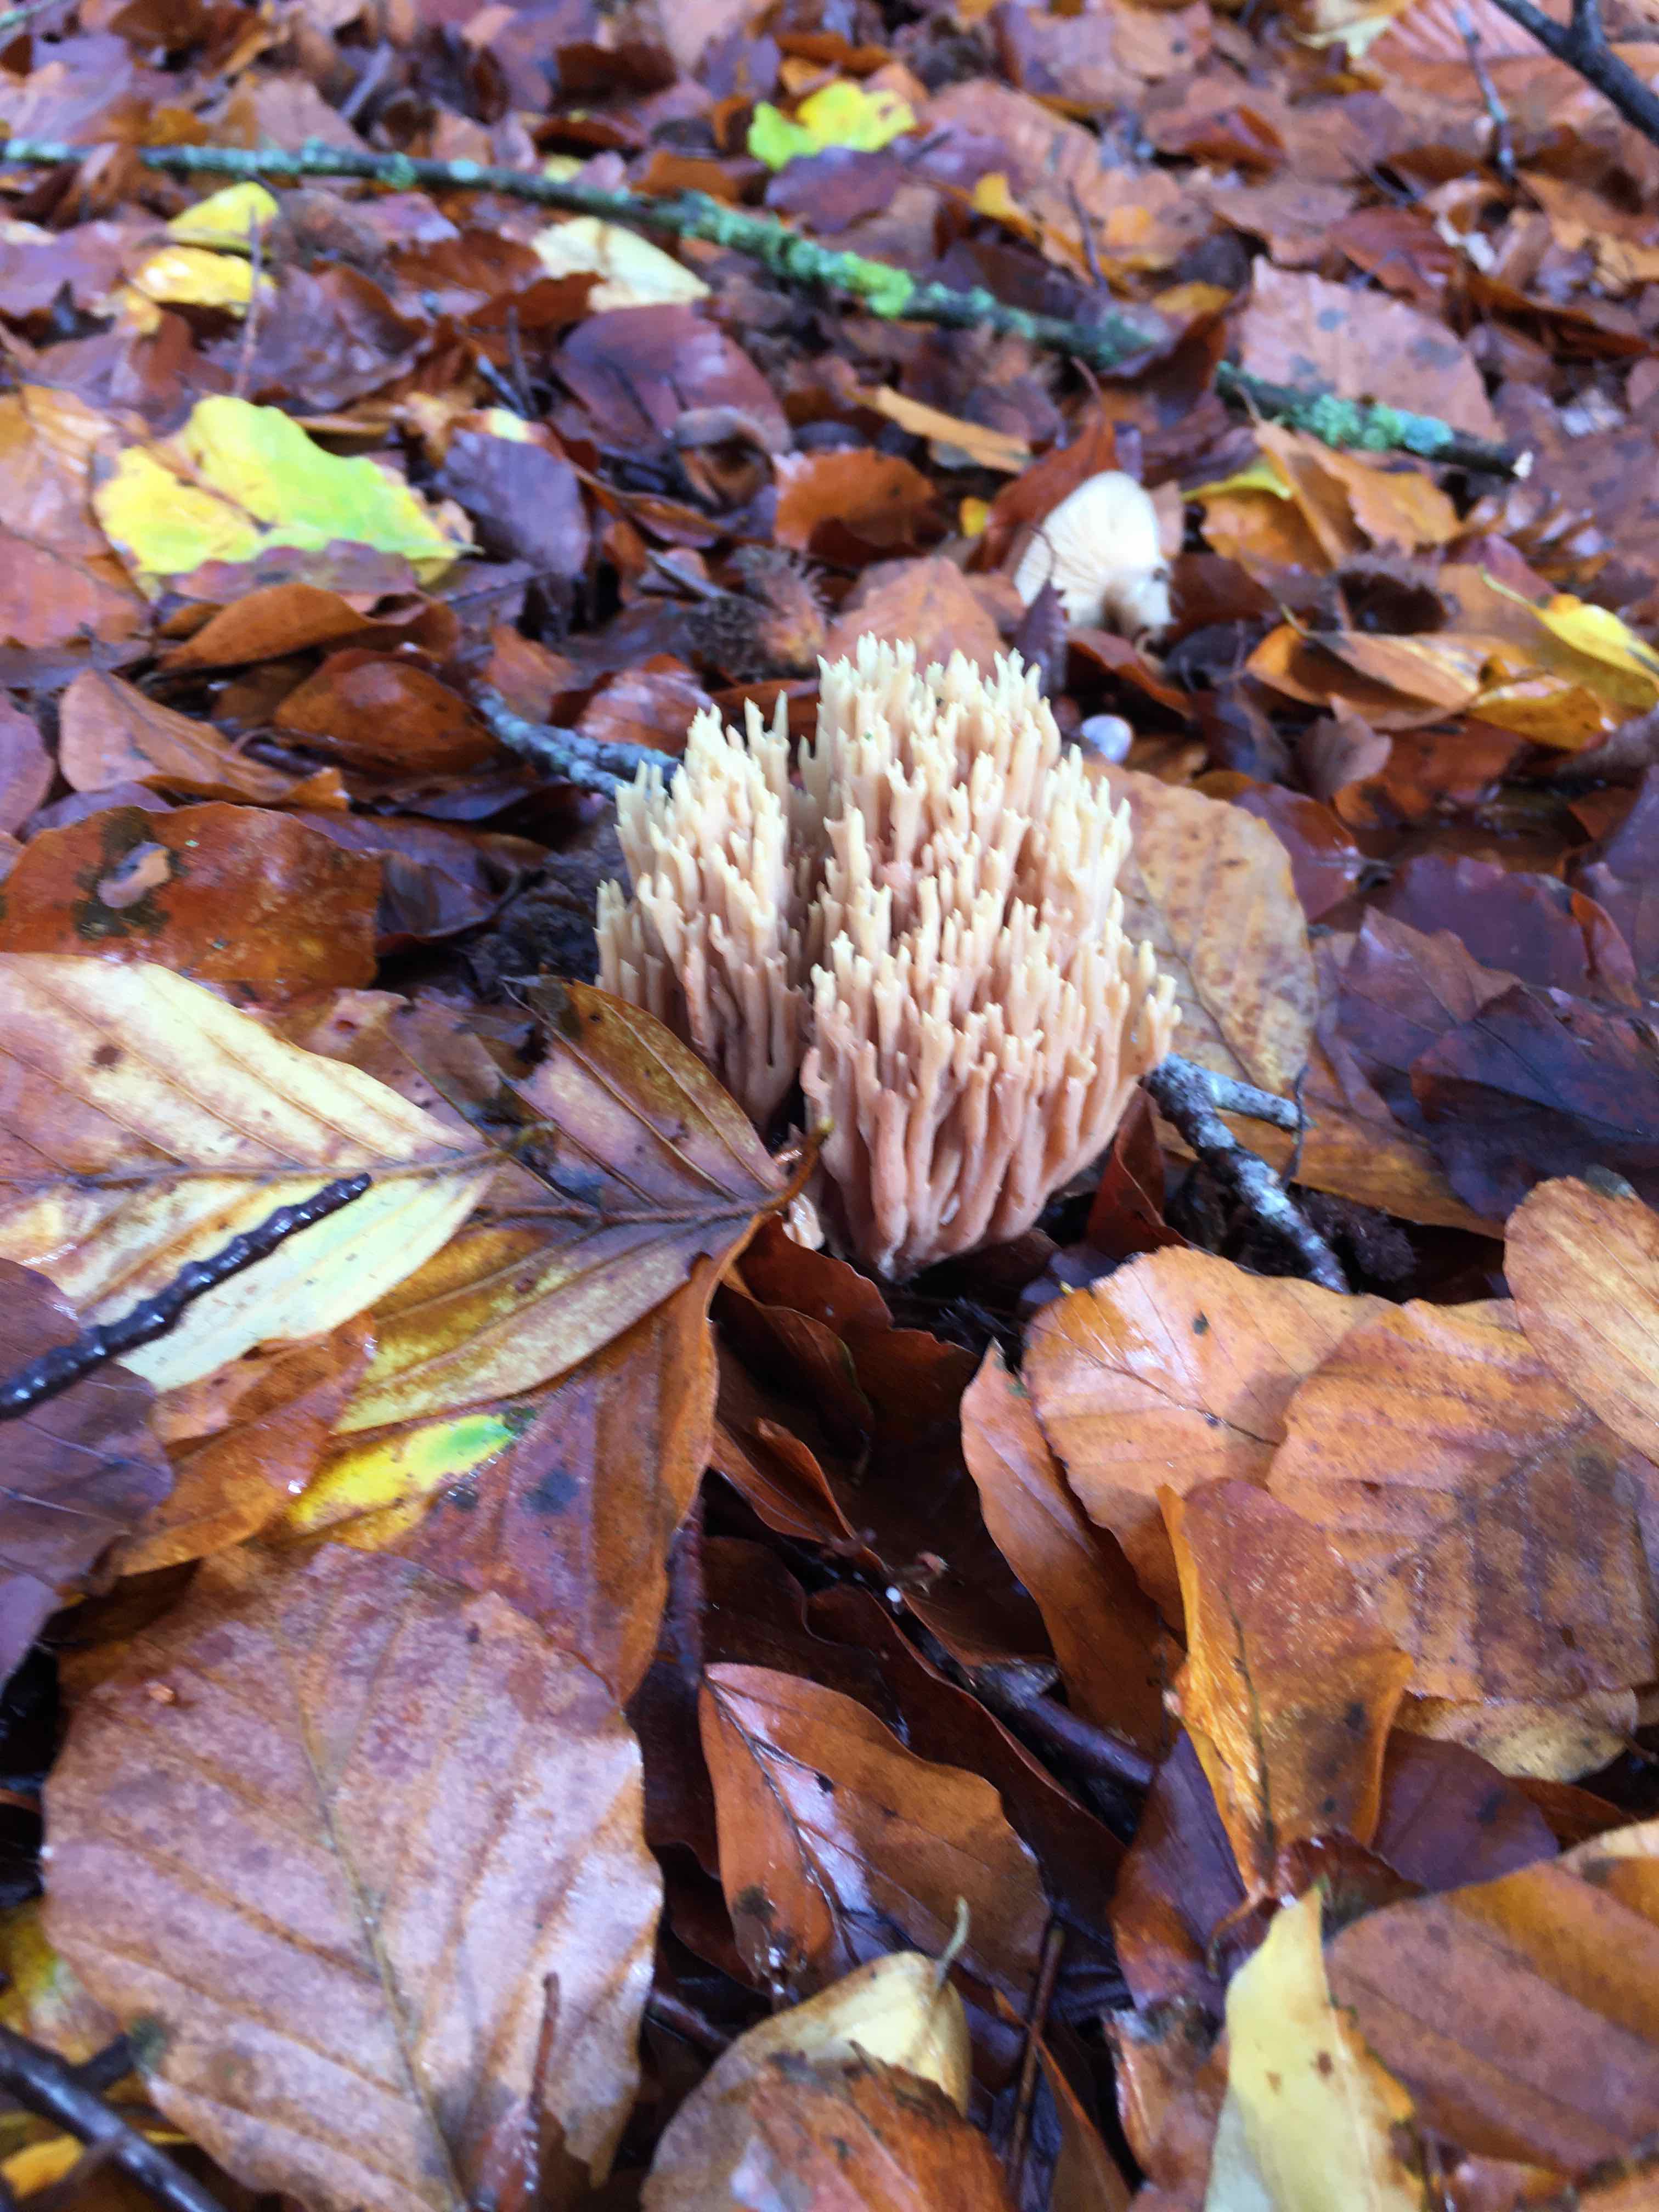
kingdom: Fungi
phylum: Basidiomycota
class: Agaricomycetes
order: Gomphales
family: Gomphaceae
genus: Ramaria
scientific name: Ramaria stricta
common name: rank koralsvamp
